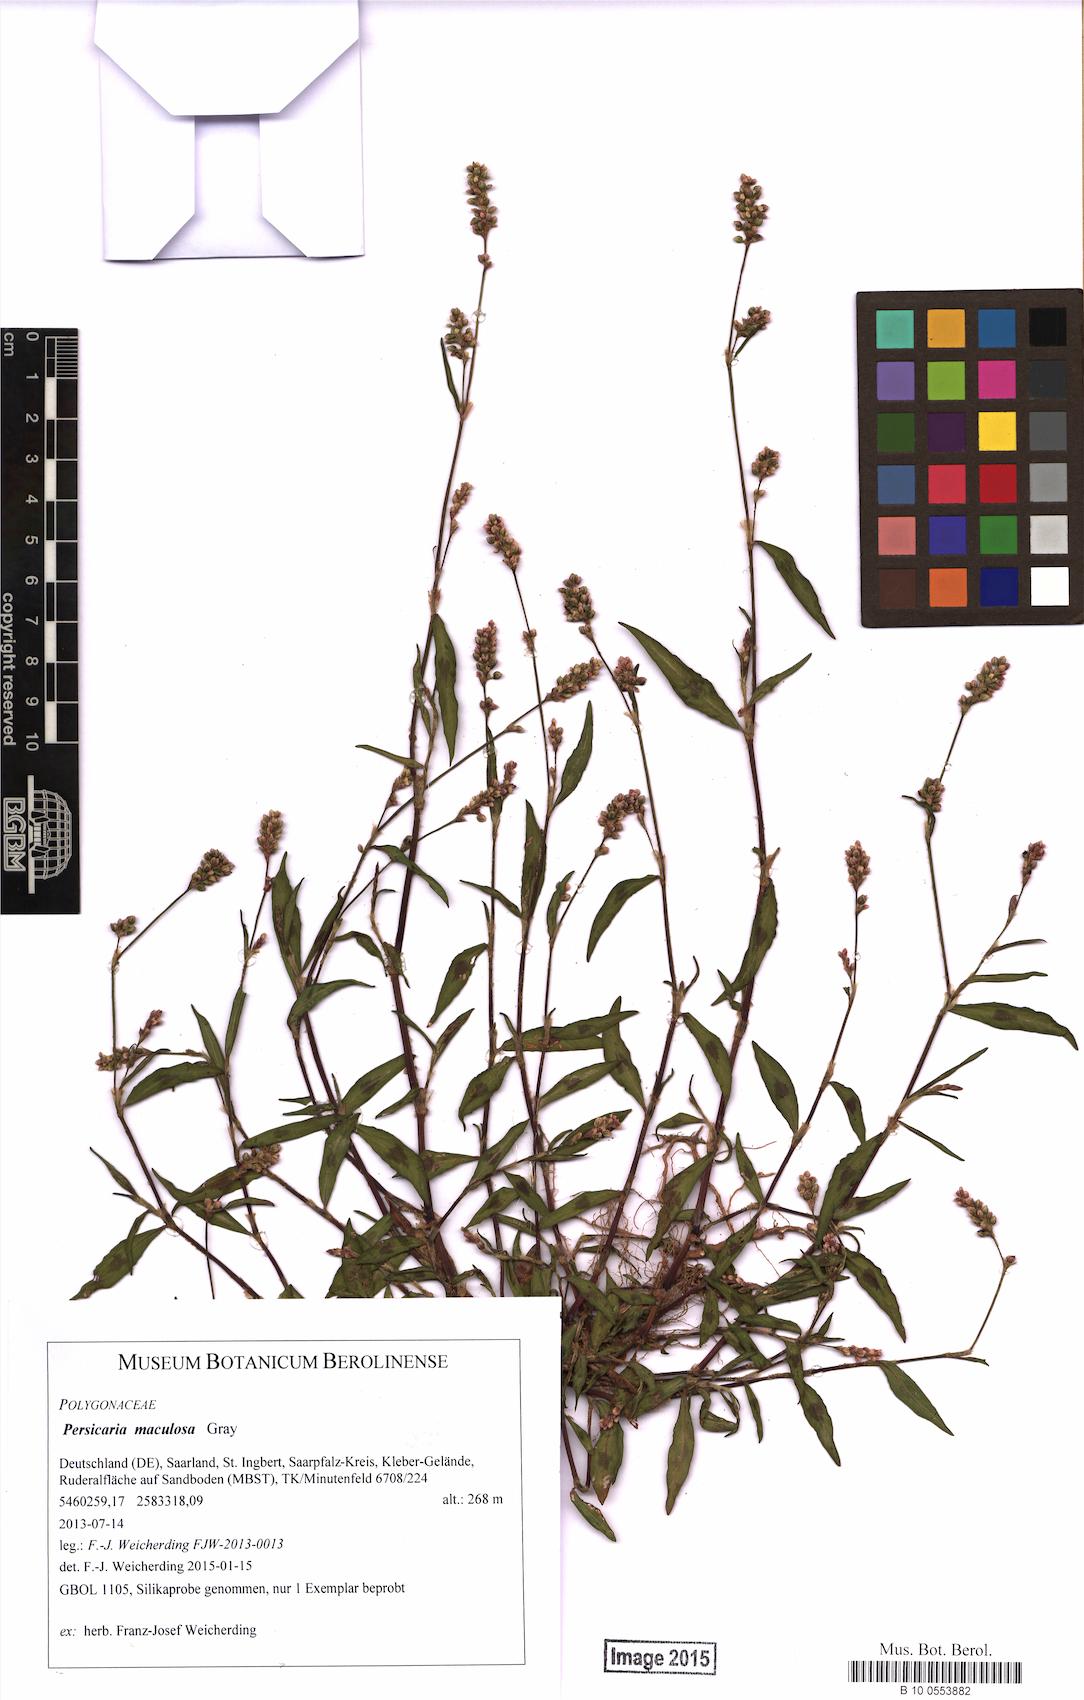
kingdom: Plantae
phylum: Tracheophyta
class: Magnoliopsida
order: Caryophyllales
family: Polygonaceae
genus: Persicaria
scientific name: Persicaria maculosa
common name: Redshank
